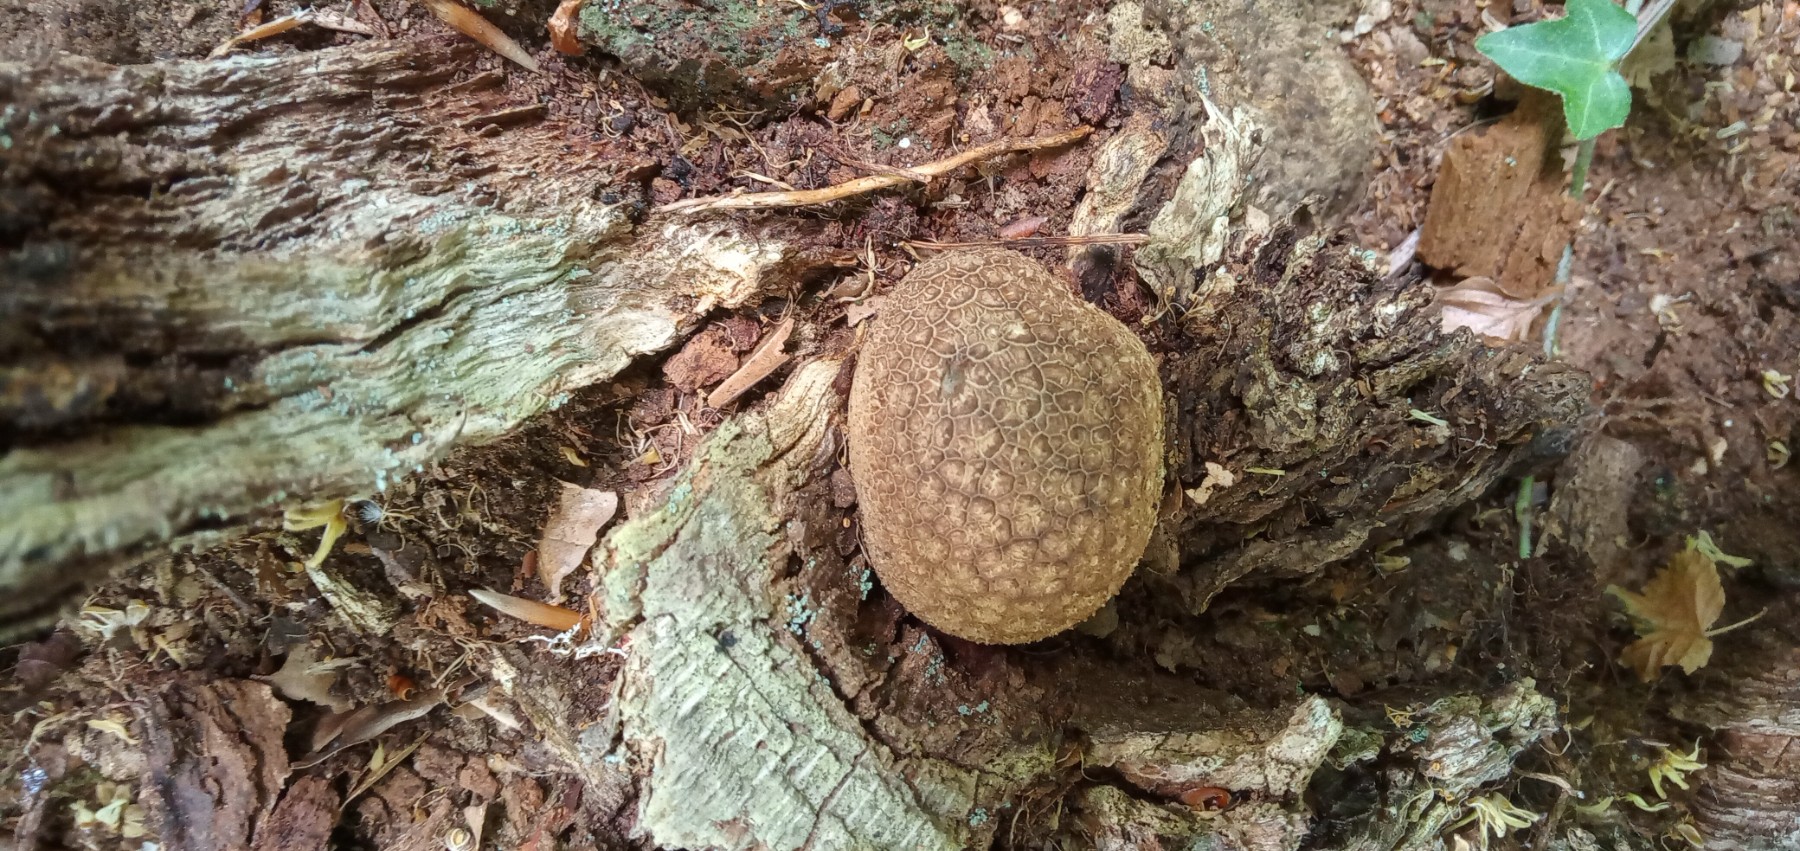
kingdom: Fungi
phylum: Basidiomycota
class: Agaricomycetes
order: Boletales
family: Sclerodermataceae
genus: Scleroderma
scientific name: Scleroderma citrinum
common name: almindelig bruskbold
